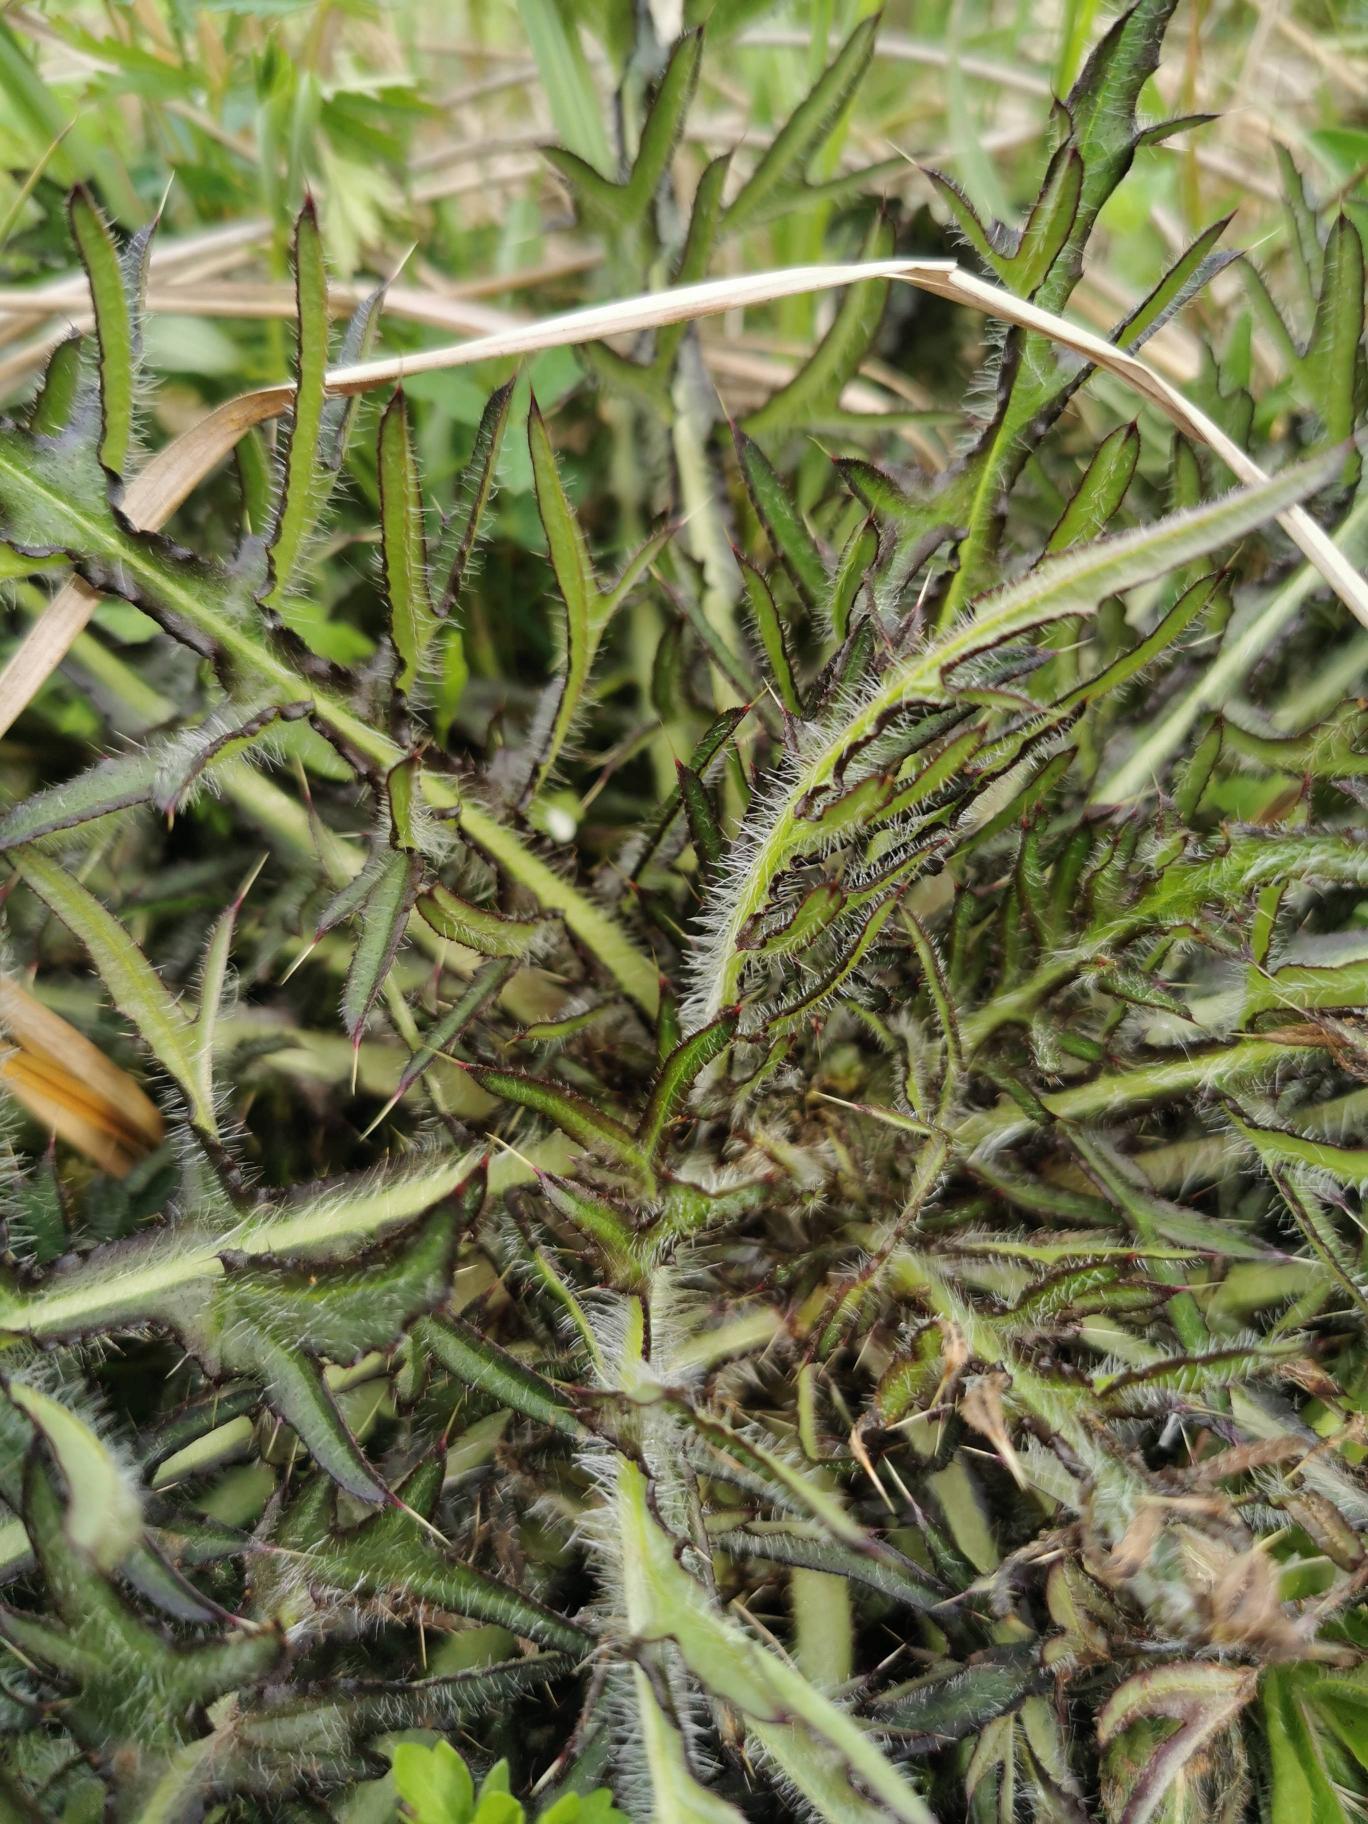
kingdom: Plantae
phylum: Tracheophyta
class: Magnoliopsida
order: Asterales
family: Asteraceae
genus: Cirsium
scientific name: Cirsium palustre
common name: Kær-tidsel
